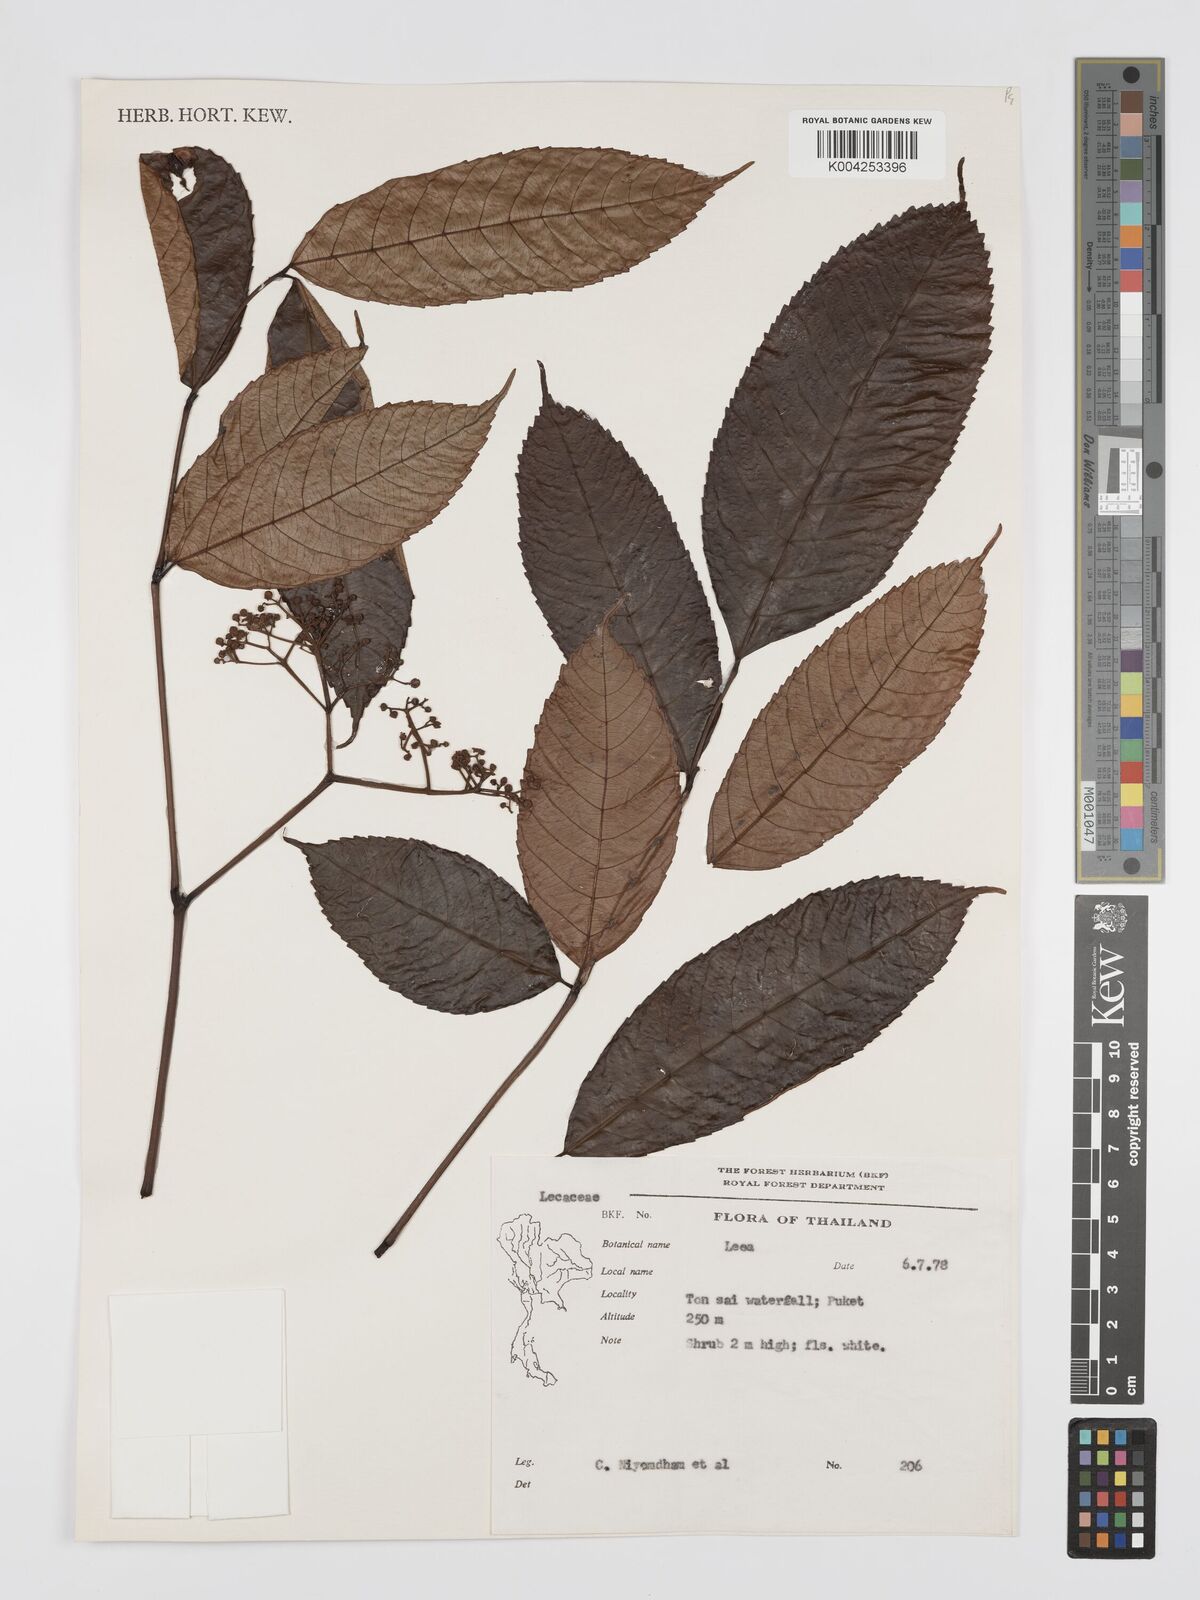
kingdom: Plantae
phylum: Tracheophyta
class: Magnoliopsida
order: Vitales
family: Vitaceae
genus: Leea
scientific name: Leea
